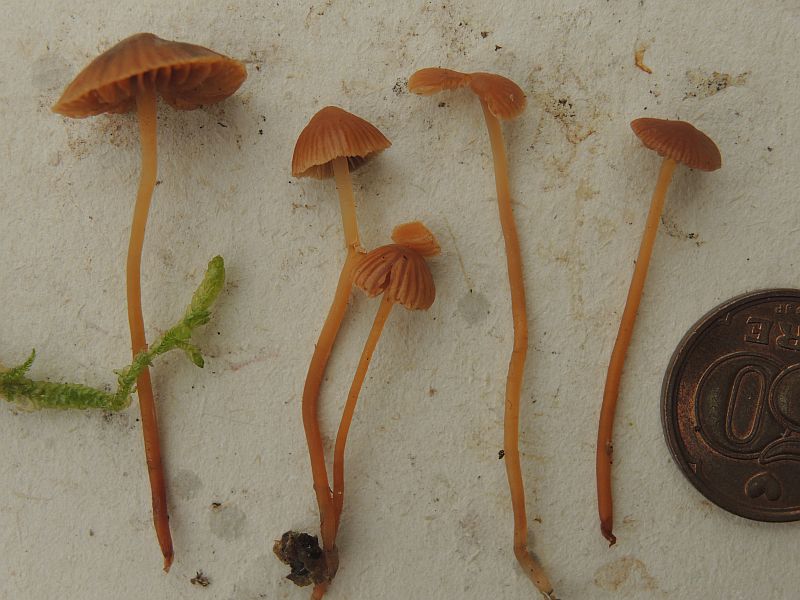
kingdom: Fungi
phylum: Basidiomycota
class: Agaricomycetes
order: Agaricales
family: Hymenogastraceae
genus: Galerina
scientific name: Galerina vittiformis
